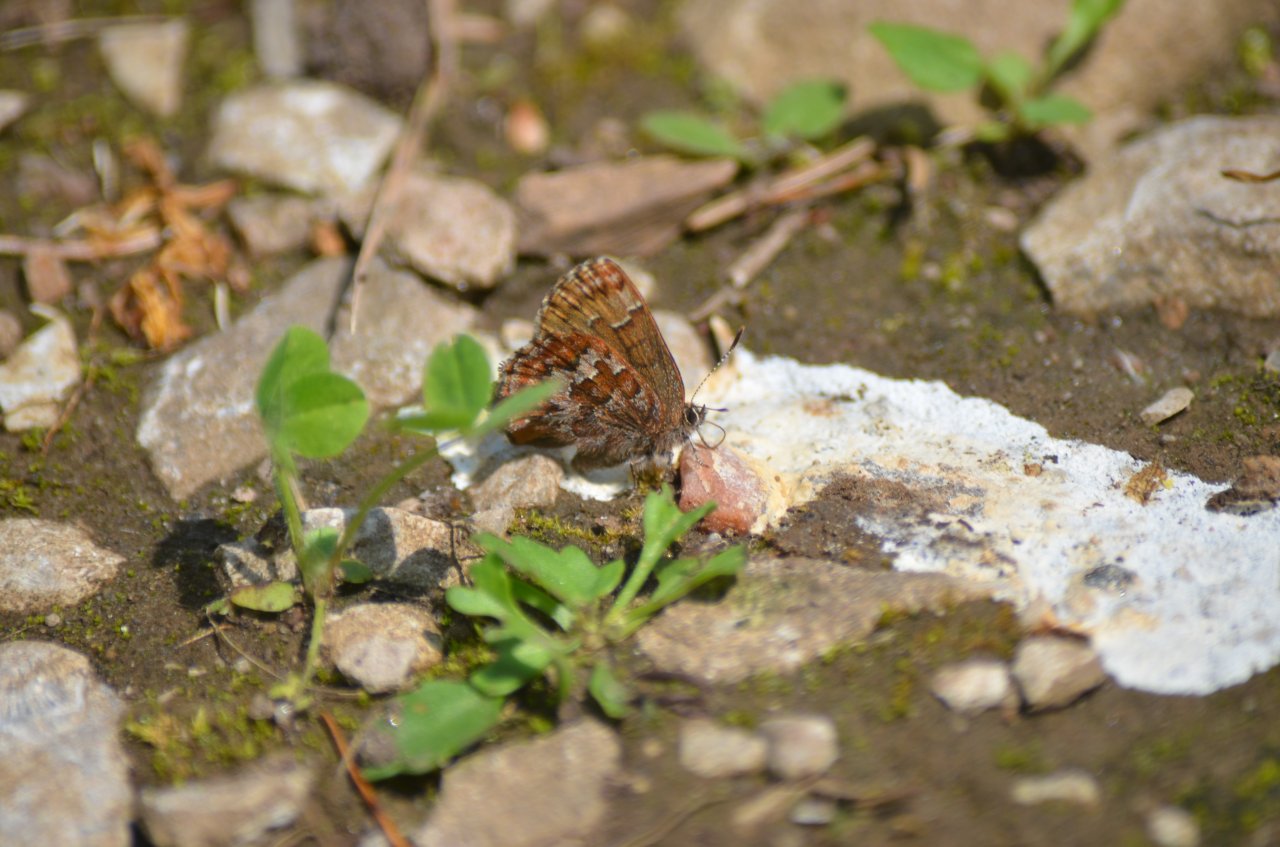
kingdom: Animalia
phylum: Arthropoda
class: Insecta
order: Lepidoptera
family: Lycaenidae
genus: Incisalia
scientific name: Incisalia niphon
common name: Eastern Pine Elfin
